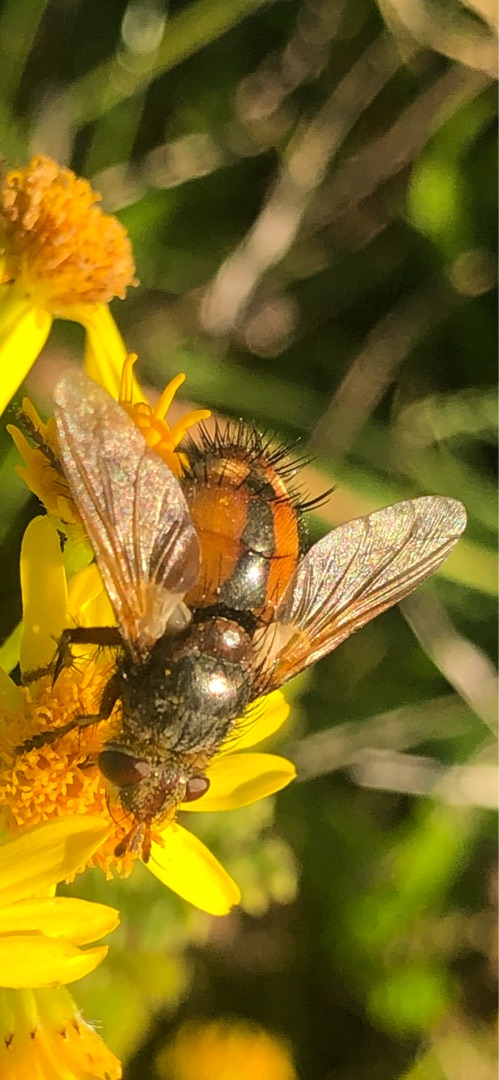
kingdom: Animalia
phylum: Arthropoda
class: Insecta
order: Diptera
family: Tachinidae
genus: Tachina
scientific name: Tachina fera
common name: Mellemfluen oskar
